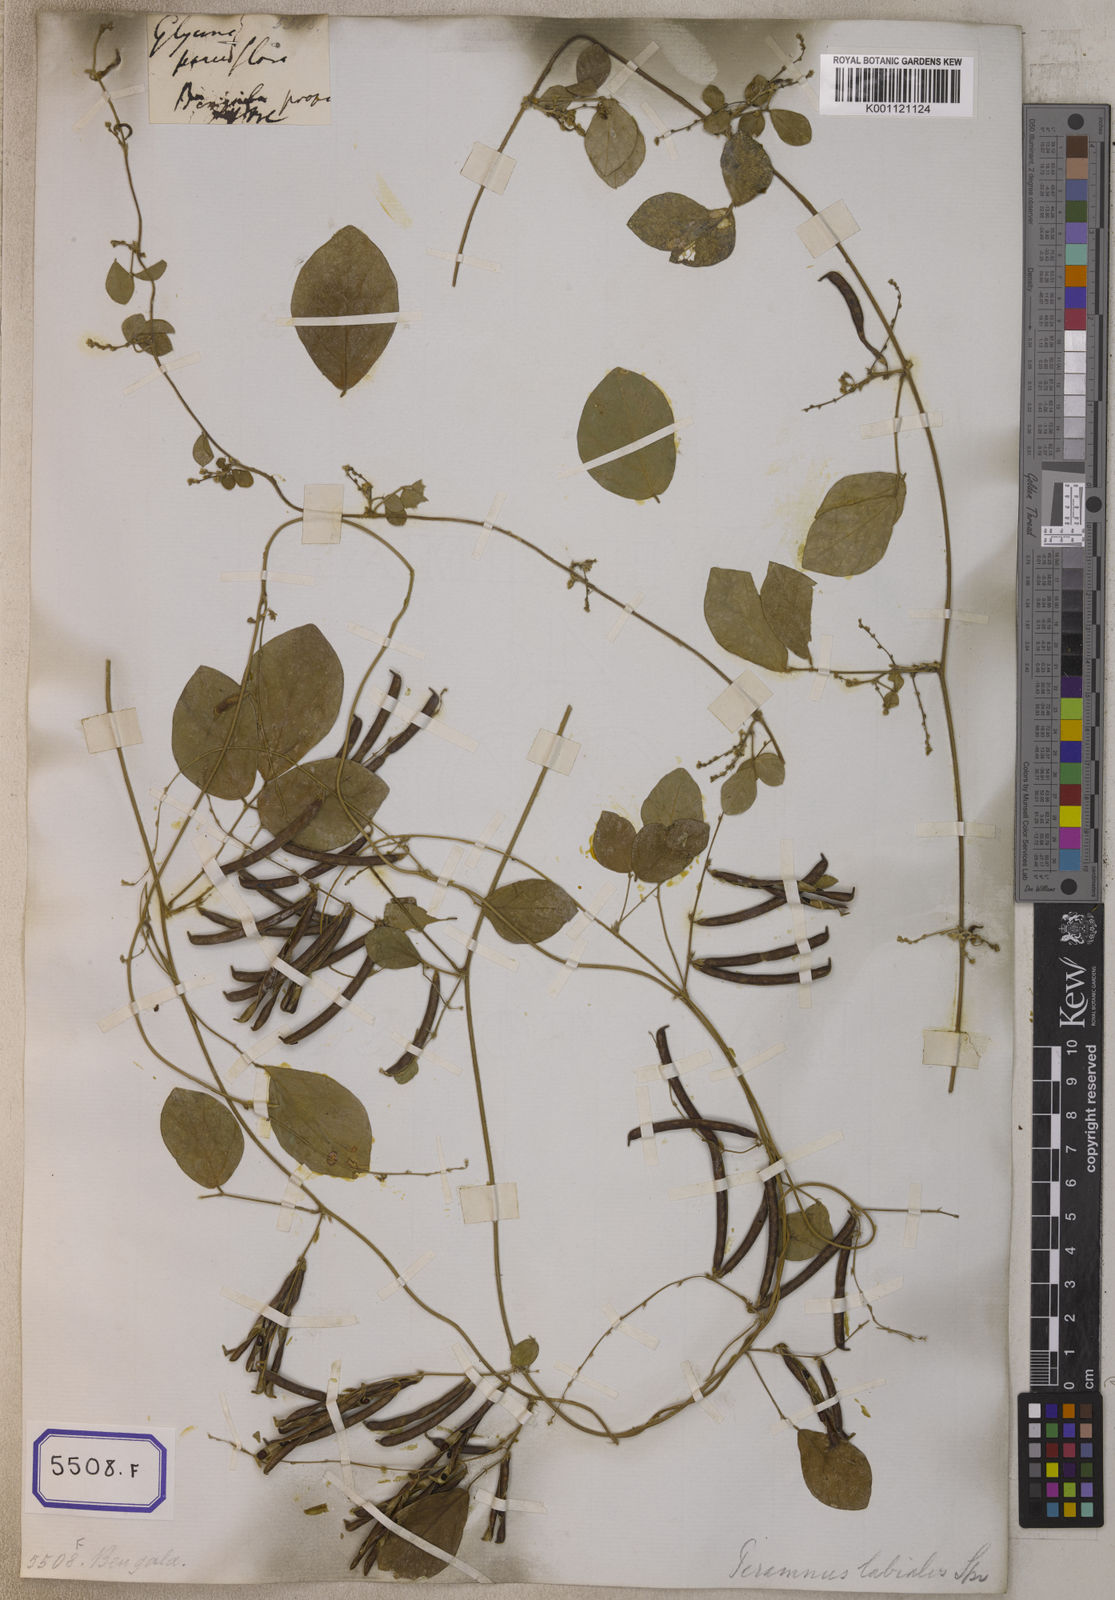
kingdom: Plantae
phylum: Tracheophyta
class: Magnoliopsida
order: Fabales
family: Fabaceae
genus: Teramnus
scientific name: Teramnus labialis
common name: Blue wiss
